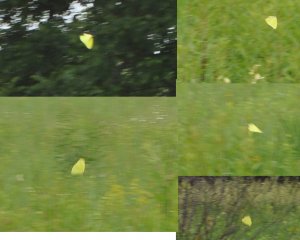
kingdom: Animalia
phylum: Arthropoda
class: Insecta
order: Lepidoptera
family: Pieridae
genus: Phoebis
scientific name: Phoebis sennae
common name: Cloudless Sulphur
